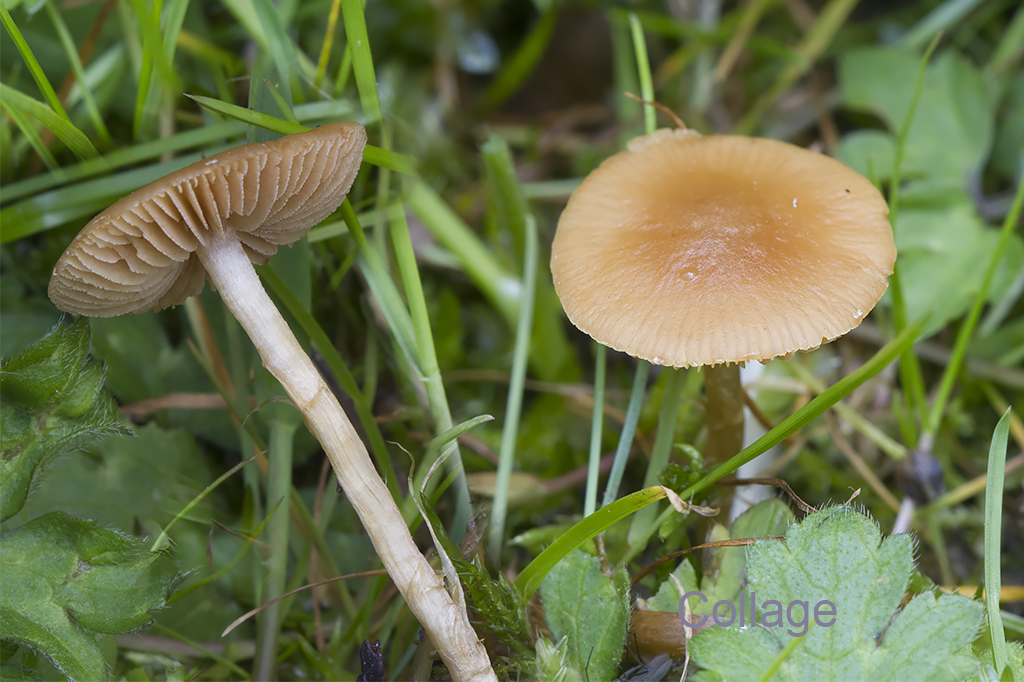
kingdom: Fungi
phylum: Basidiomycota
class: Agaricomycetes
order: Agaricales
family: Bolbitiaceae
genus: Conocybe
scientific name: Conocybe aporos
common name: tidlig dansehat
